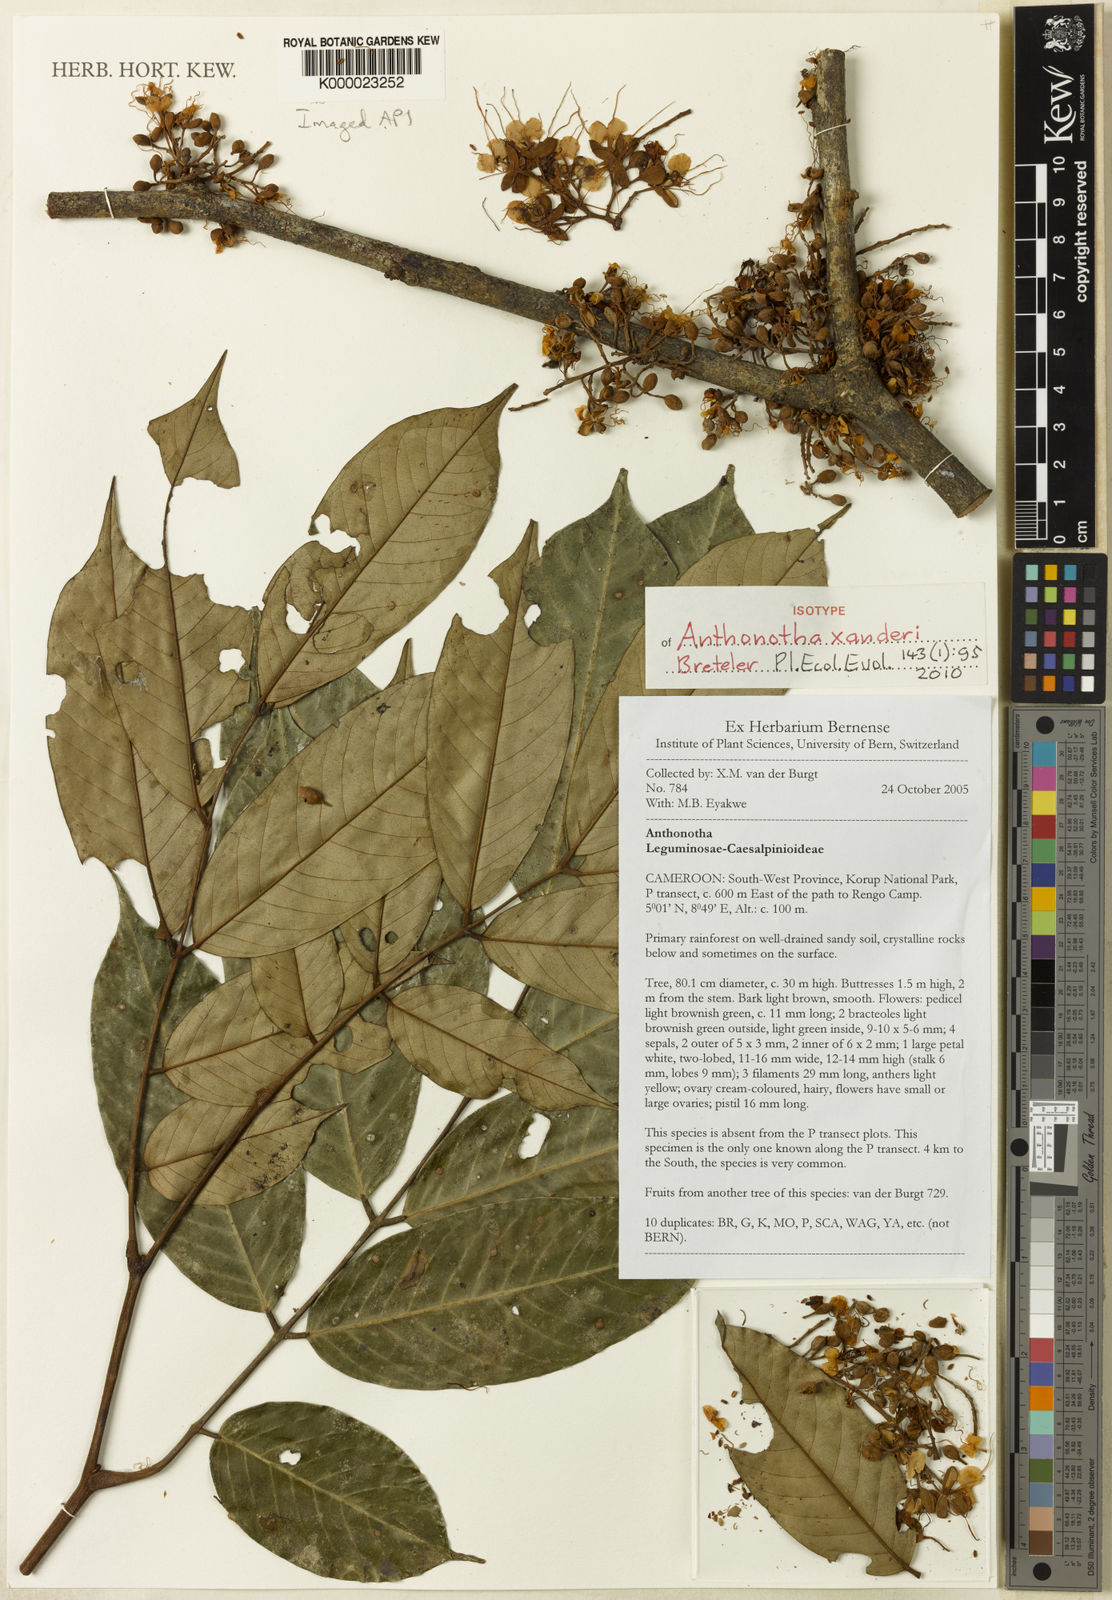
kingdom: Plantae
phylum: Tracheophyta
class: Magnoliopsida
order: Fabales
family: Fabaceae
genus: Anthonotha
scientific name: Anthonotha xanderi
